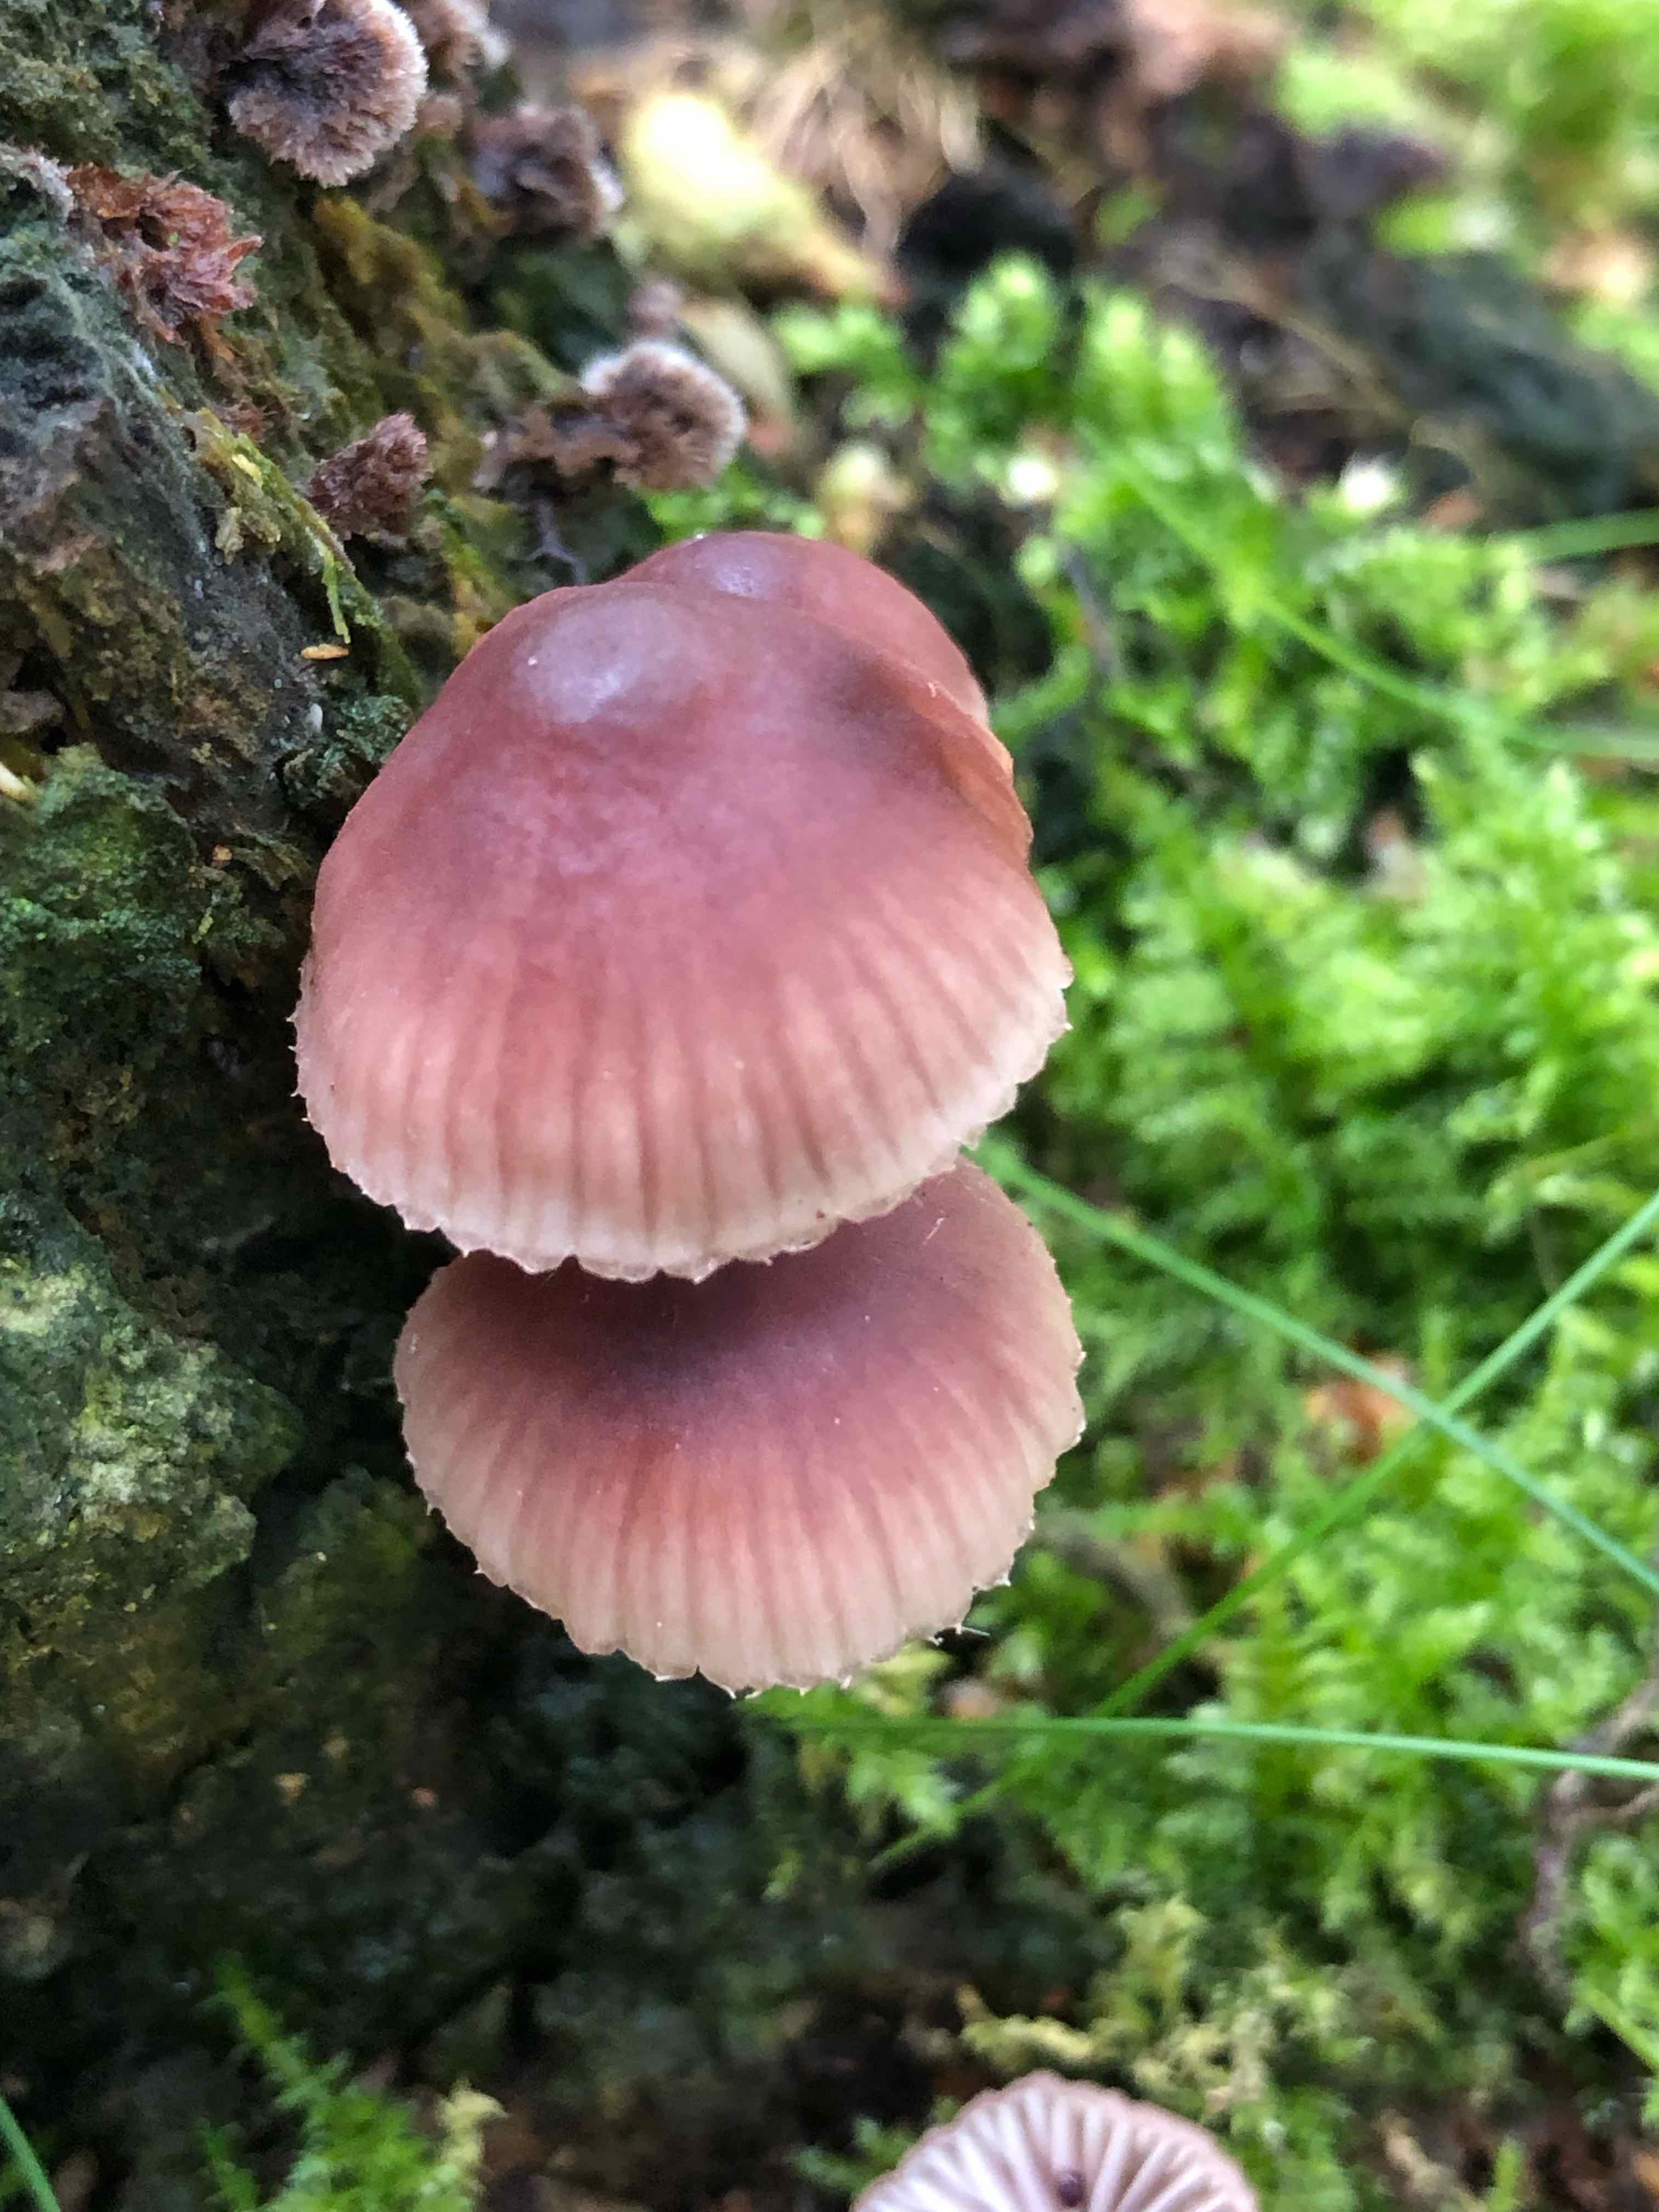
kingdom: Fungi
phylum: Basidiomycota
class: Agaricomycetes
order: Agaricales
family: Mycenaceae
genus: Mycena
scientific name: Mycena haematopus
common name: blødende huesvamp
